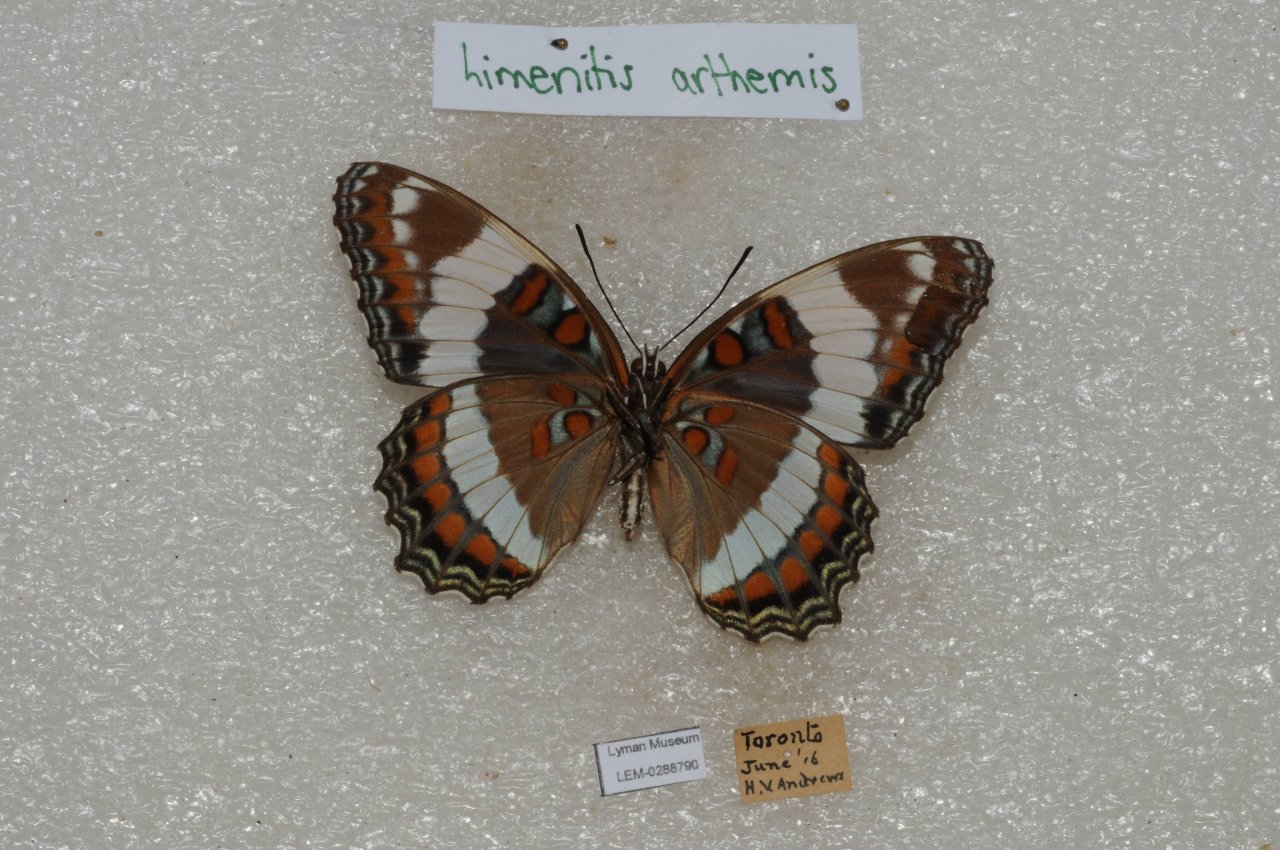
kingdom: Animalia
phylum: Arthropoda
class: Insecta
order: Lepidoptera
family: Nymphalidae
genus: Limenitis
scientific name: Limenitis arthemis
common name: Red-spotted Admiral
